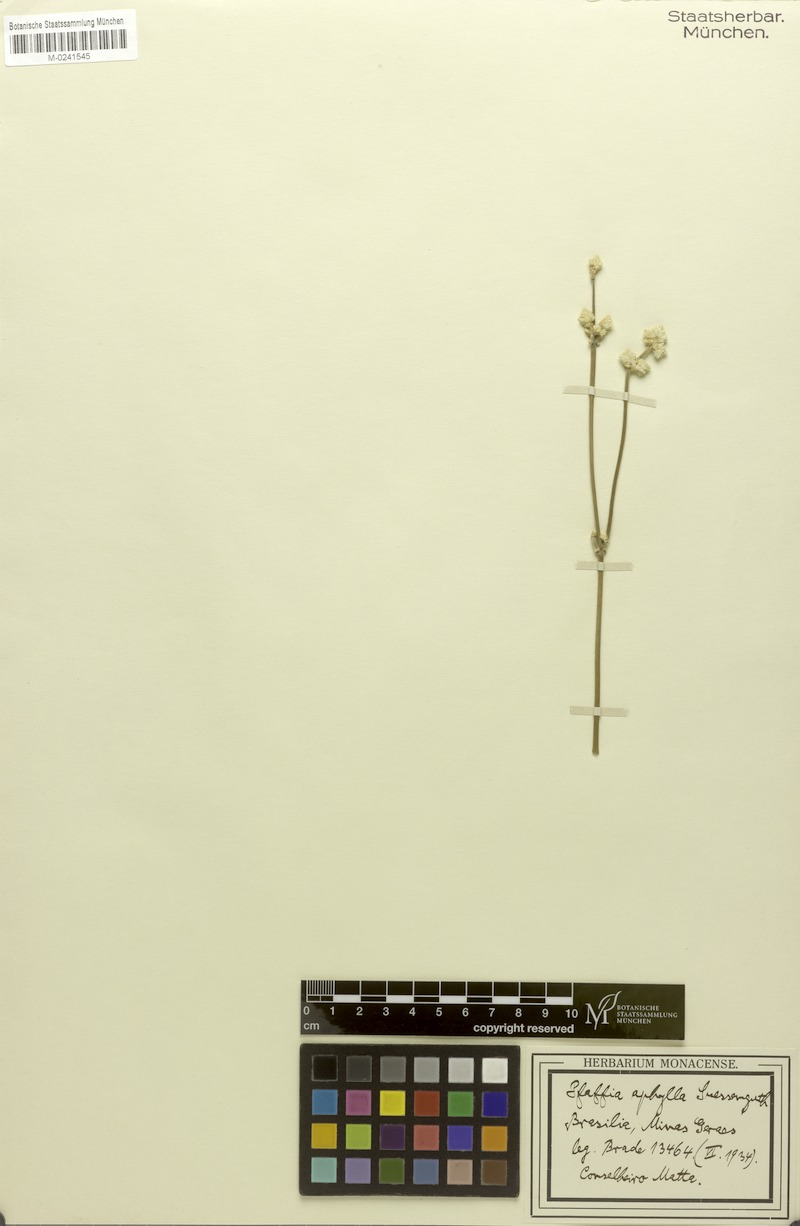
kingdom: Plantae
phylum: Tracheophyta
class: Magnoliopsida
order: Caryophyllales
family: Amaranthaceae
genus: Pfaffia
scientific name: Pfaffia aphylla
